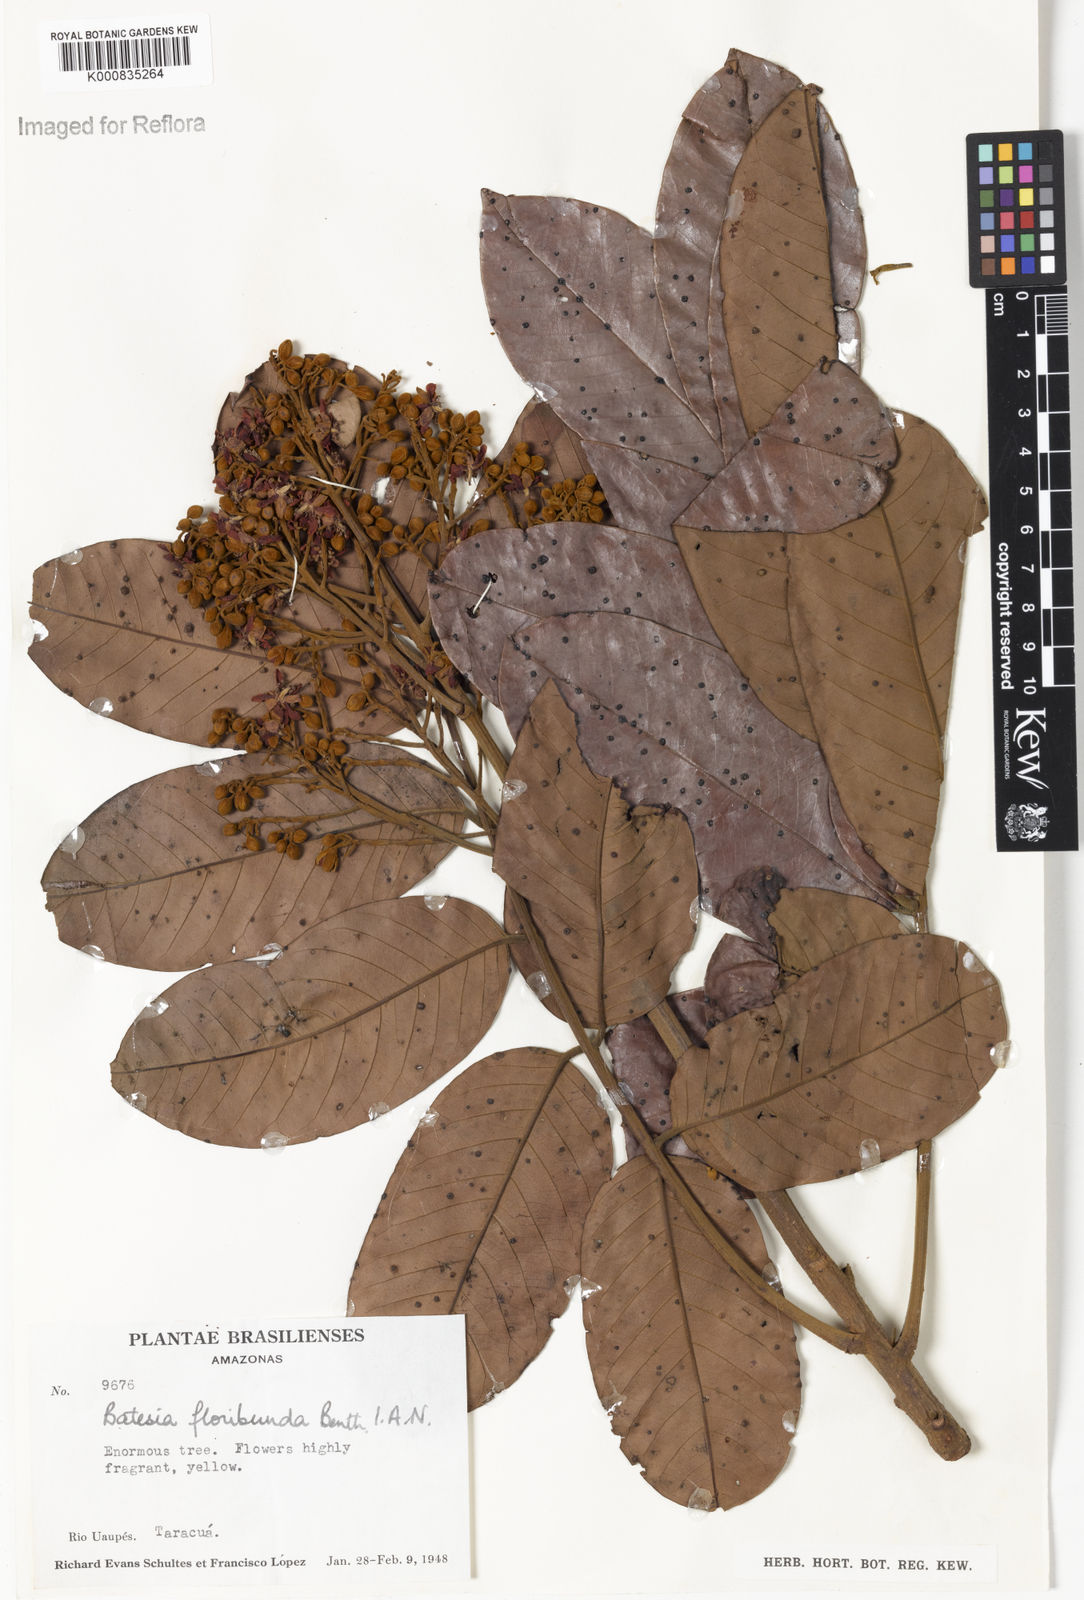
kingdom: Plantae
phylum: Tracheophyta
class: Magnoliopsida
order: Fabales
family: Fabaceae
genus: Batesia
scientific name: Batesia floribunda
